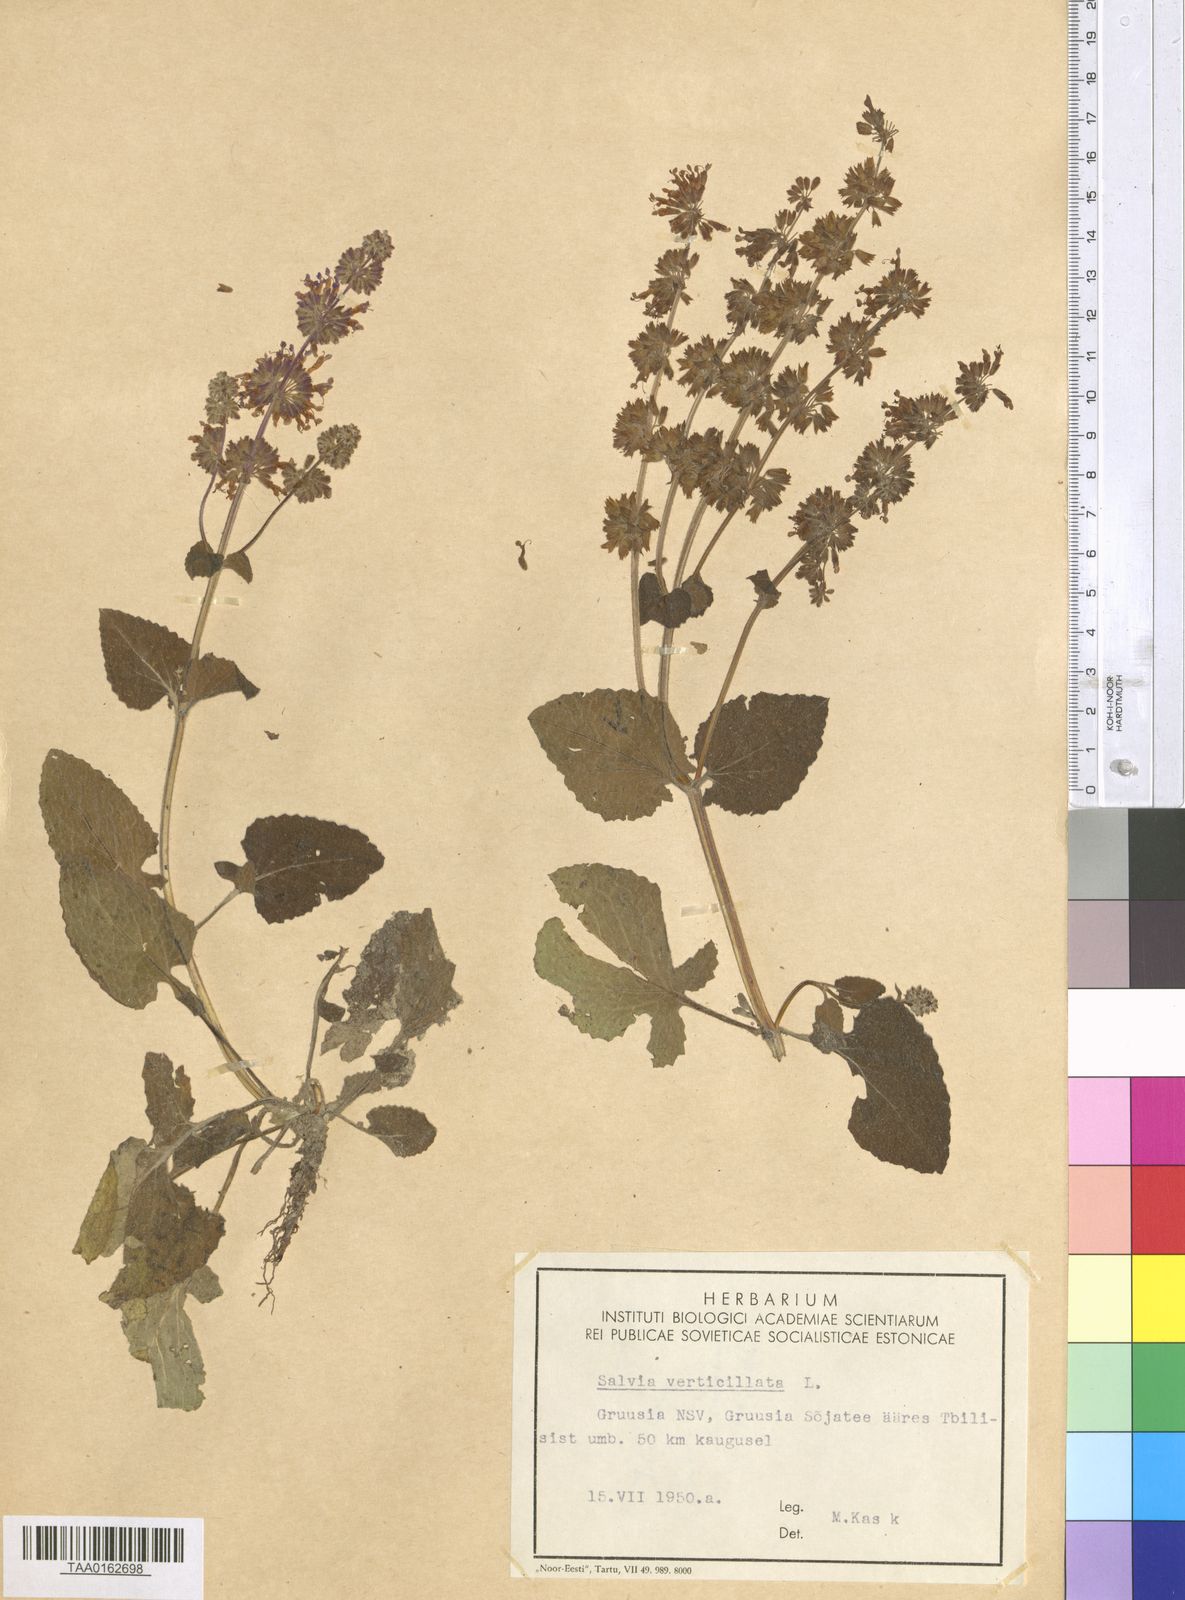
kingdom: Plantae
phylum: Tracheophyta
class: Magnoliopsida
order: Lamiales
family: Lamiaceae
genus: Salvia
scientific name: Salvia verticillata
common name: Whorled clary
